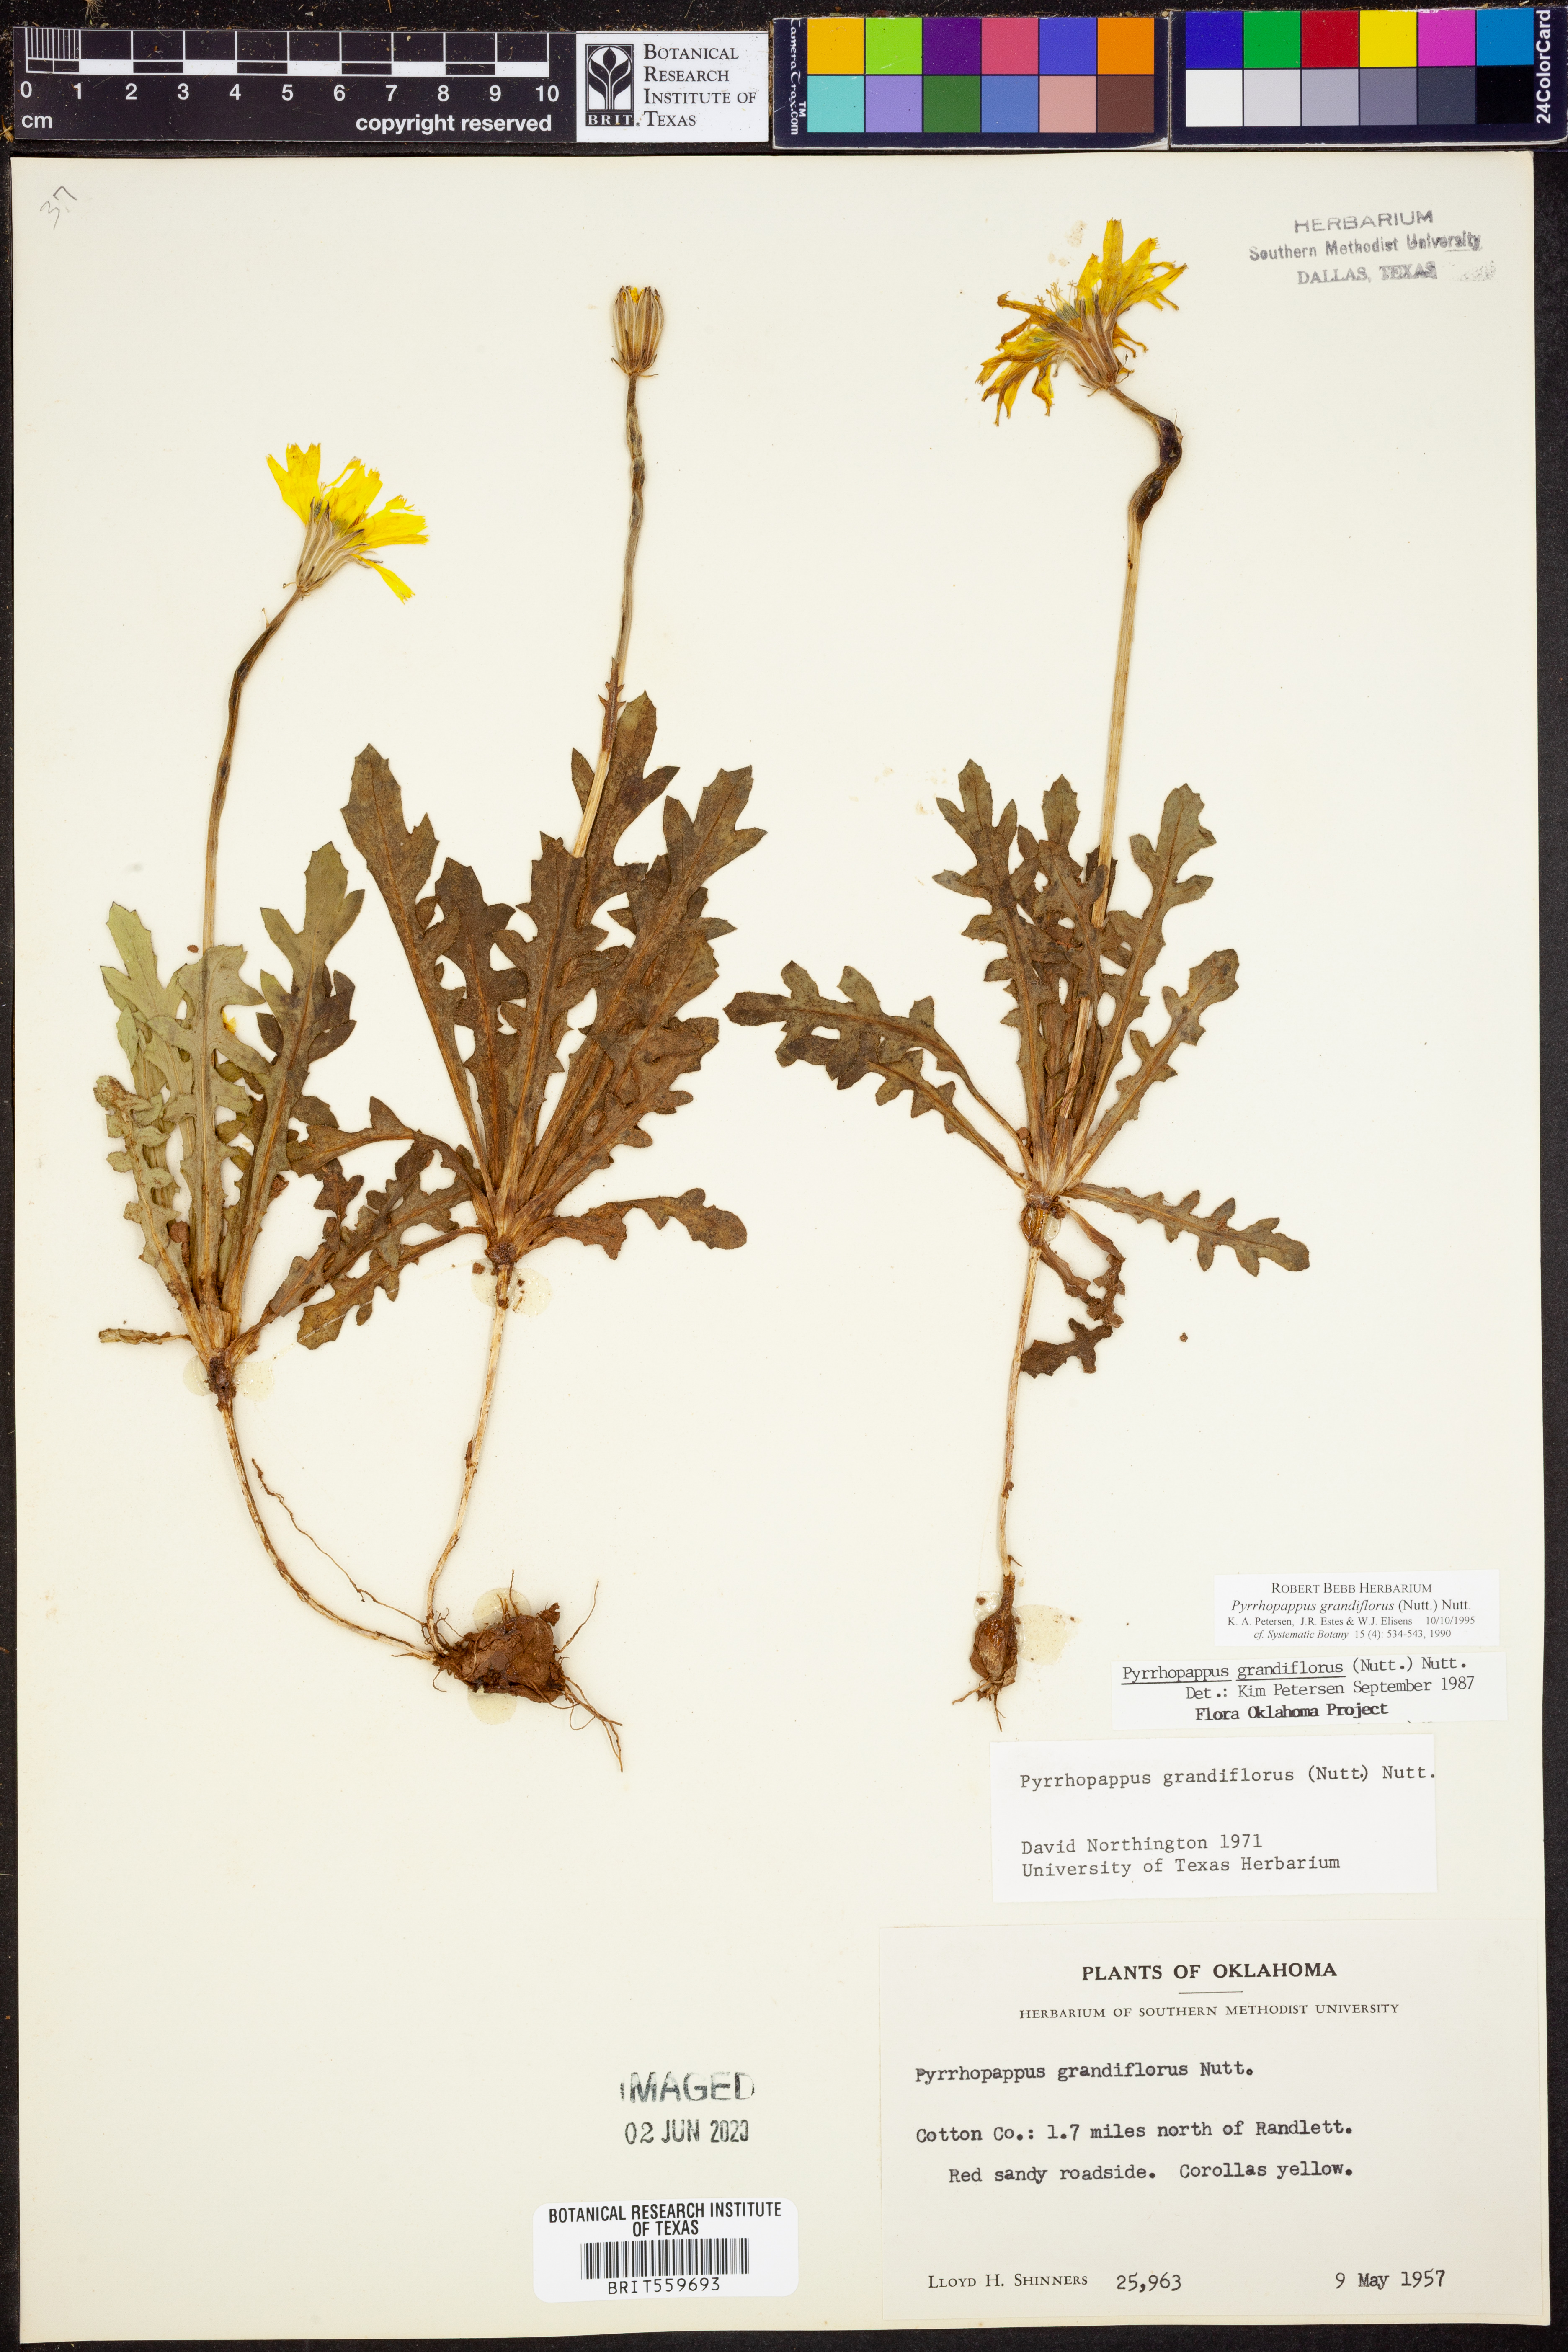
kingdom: Plantae
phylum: Tracheophyta
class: Magnoliopsida
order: Asterales
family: Asteraceae
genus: Pyrrhopappus
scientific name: Pyrrhopappus grandiflorus
